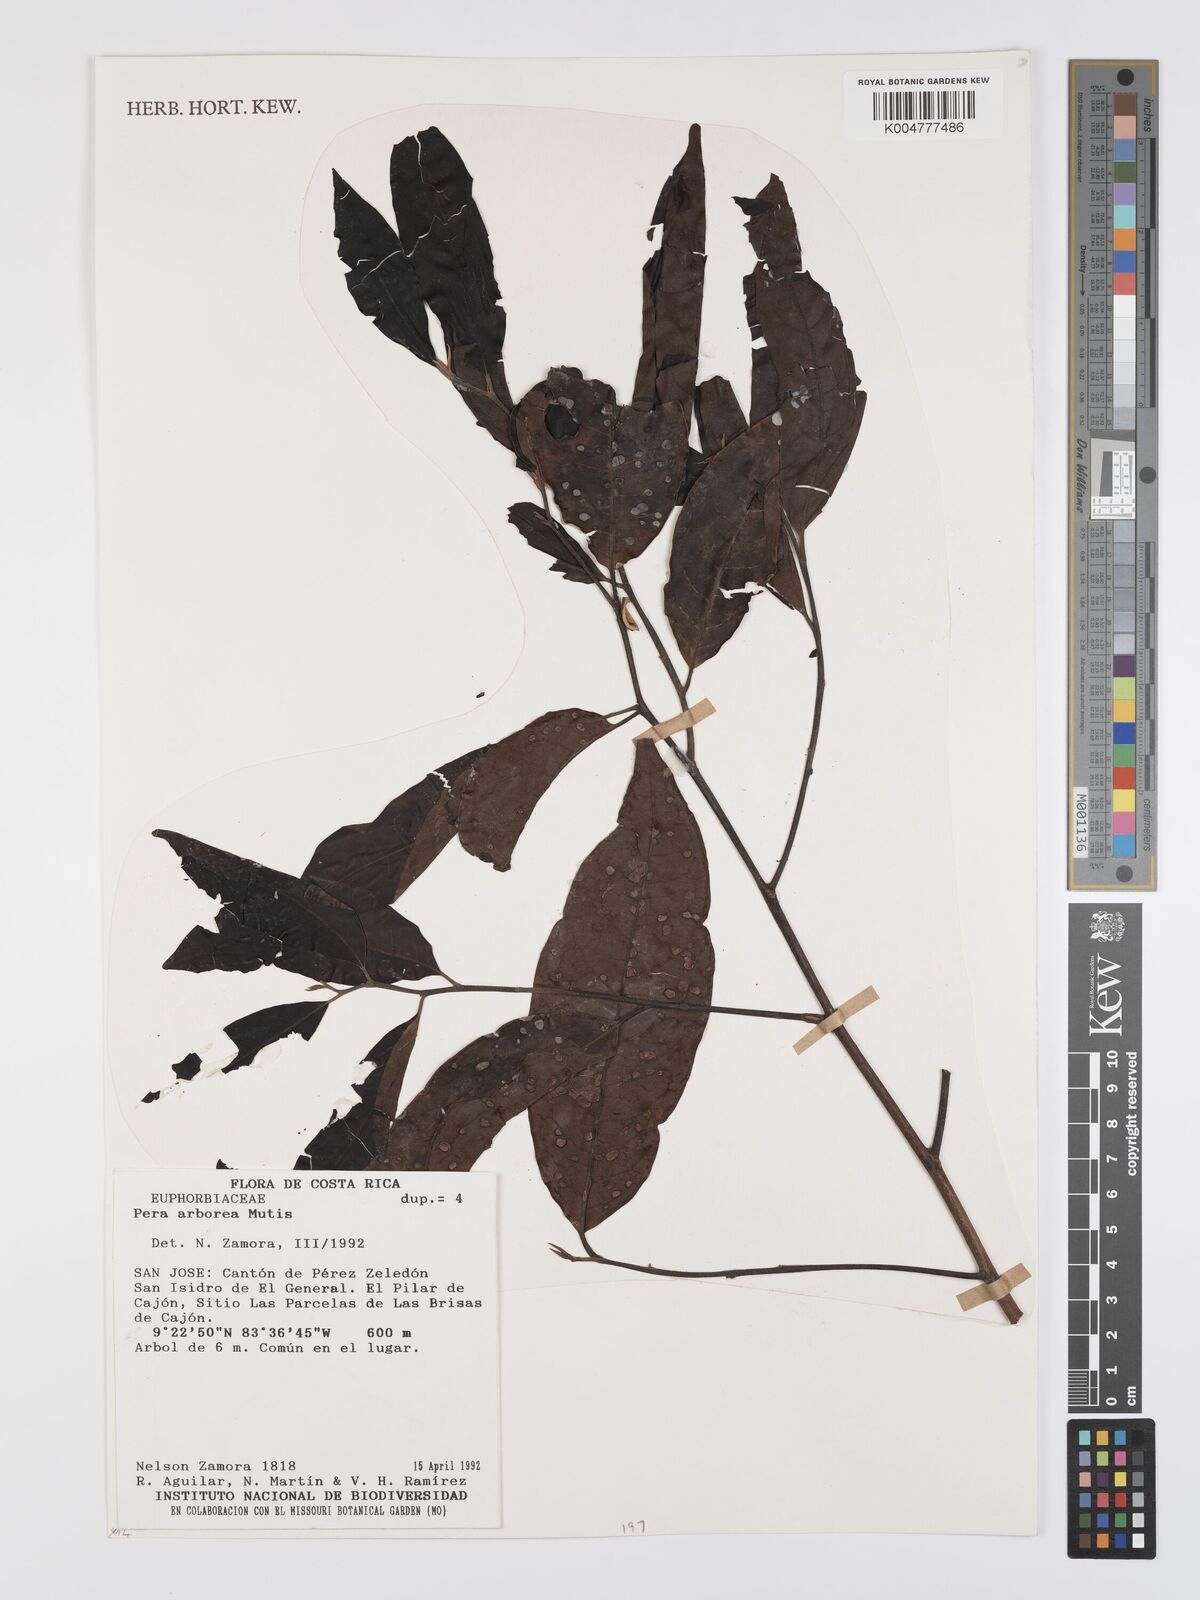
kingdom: Plantae
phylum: Tracheophyta
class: Magnoliopsida
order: Malpighiales
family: Peraceae
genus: Pera
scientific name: Pera
